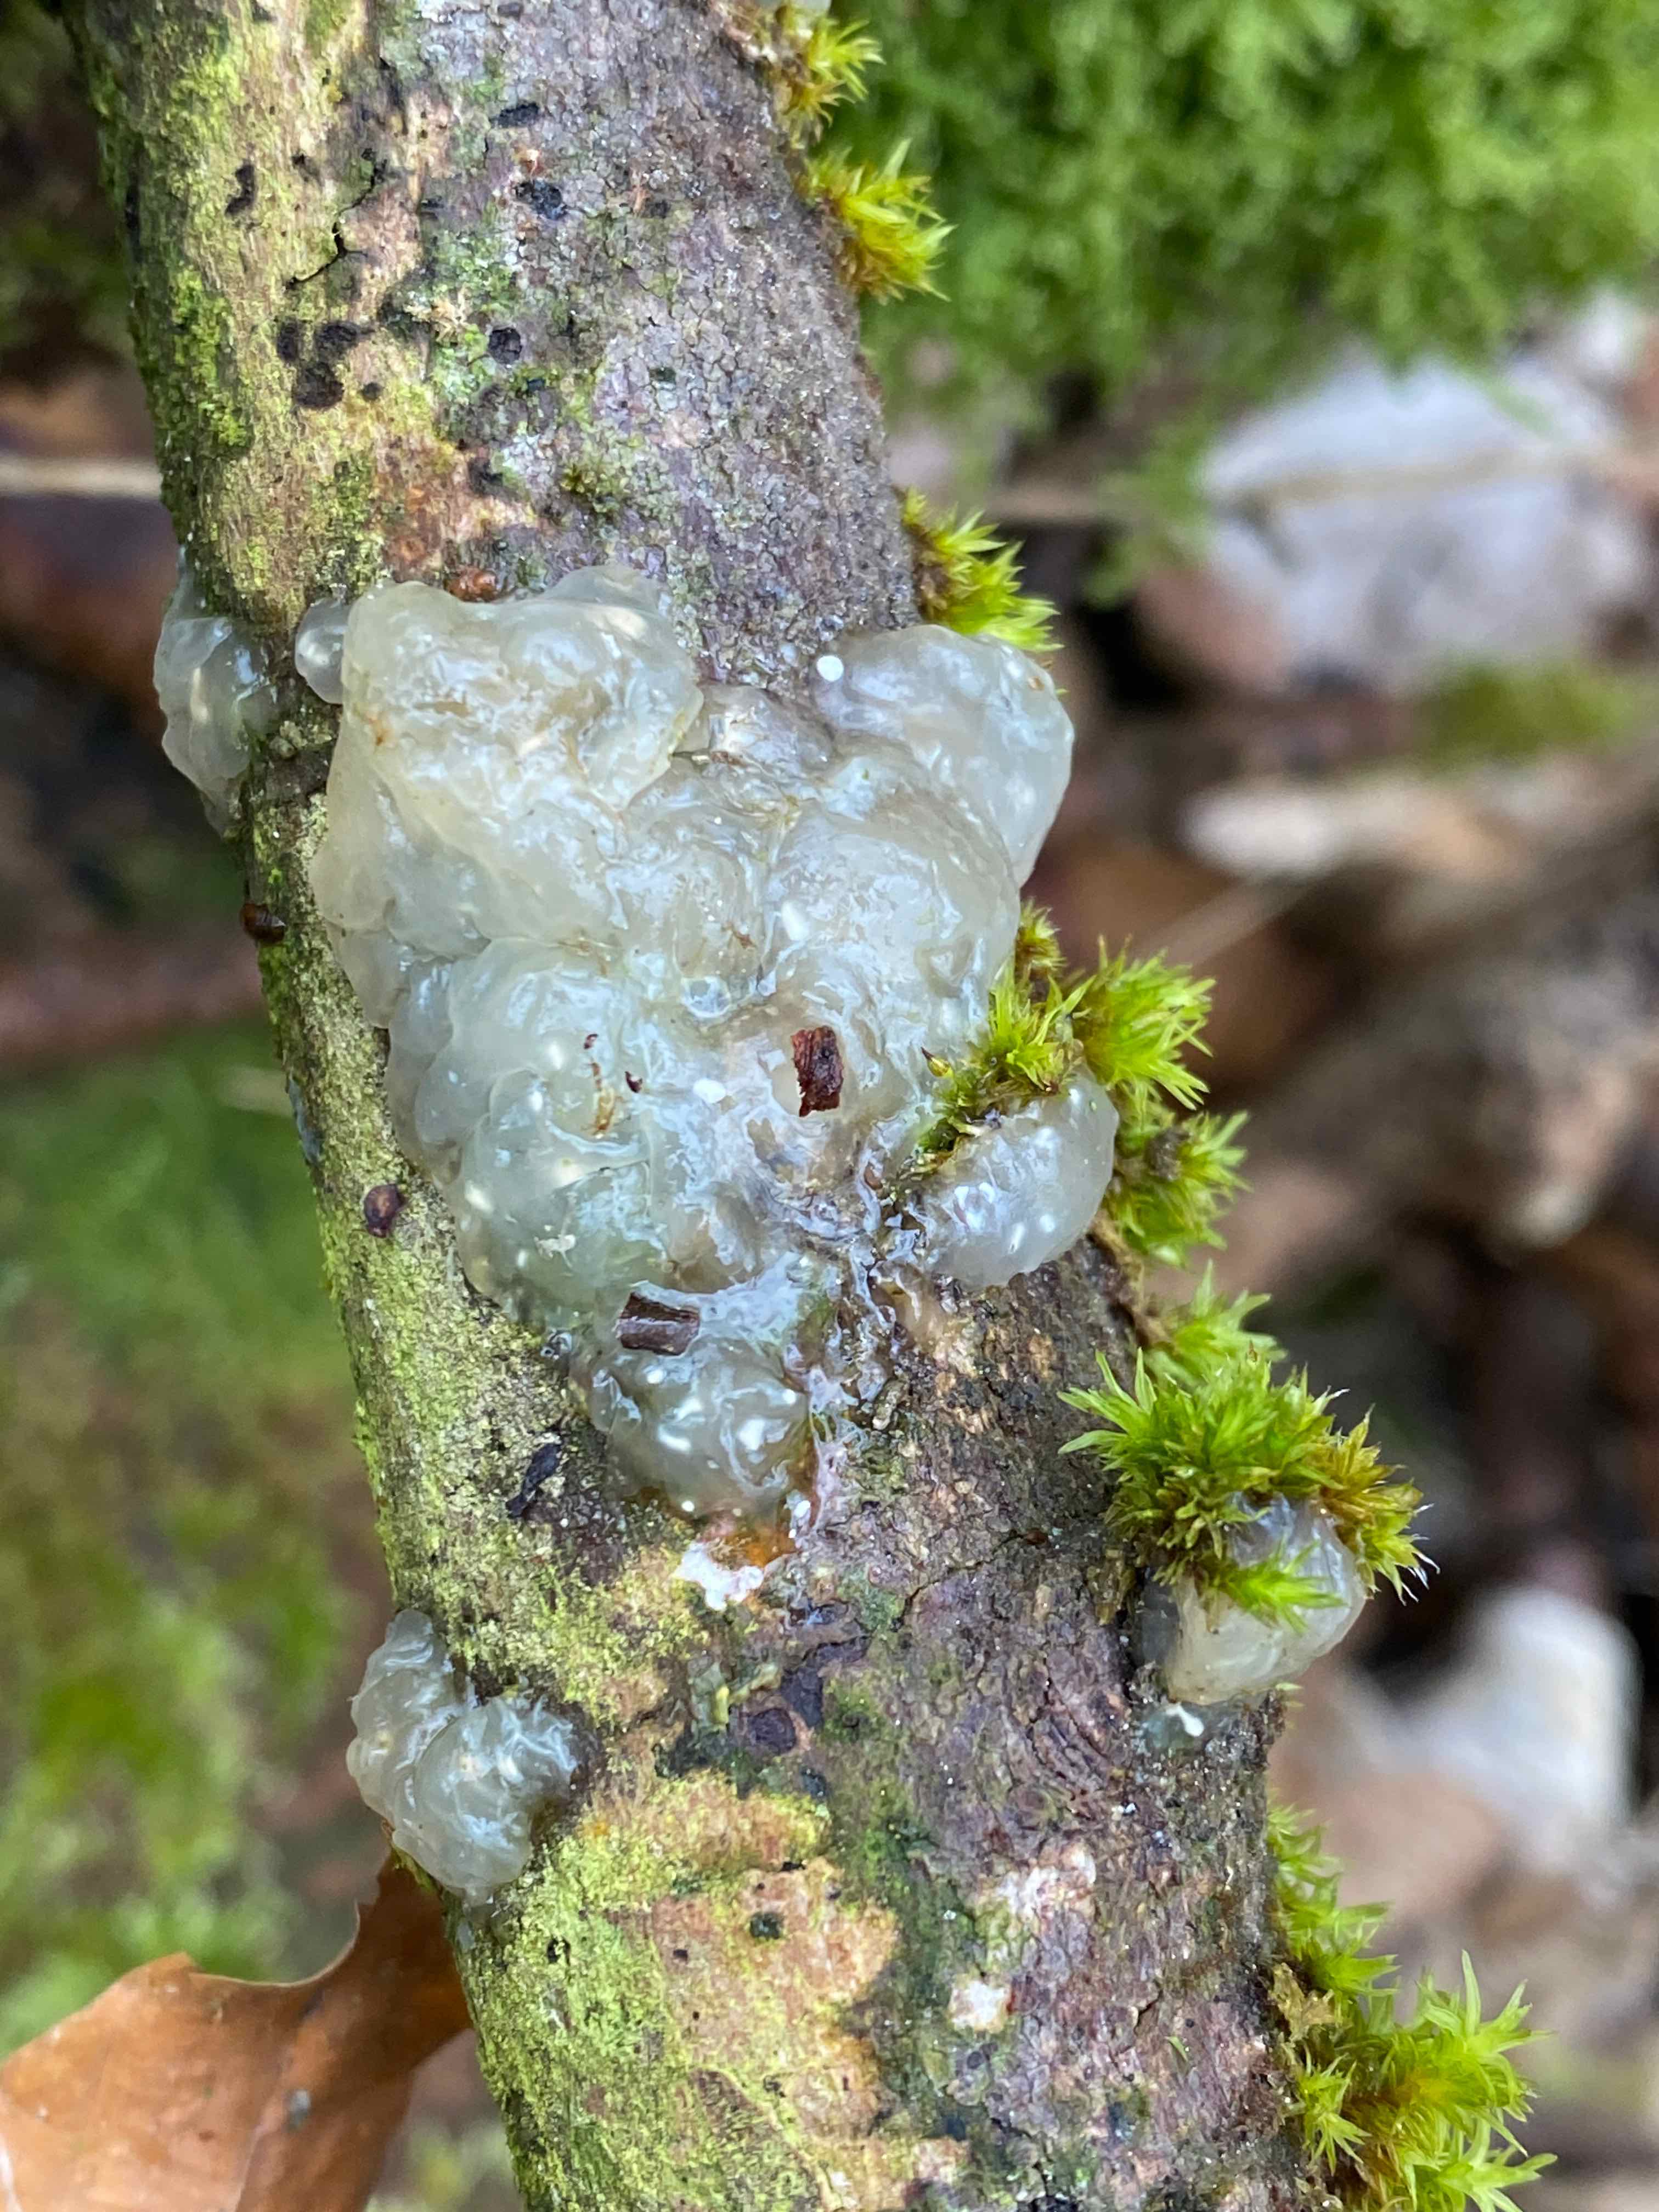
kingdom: Fungi
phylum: Basidiomycota
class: Agaricomycetes
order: Auriculariales
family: Hyaloriaceae
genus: Myxarium
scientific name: Myxarium nucleatum
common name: klar bævretop
